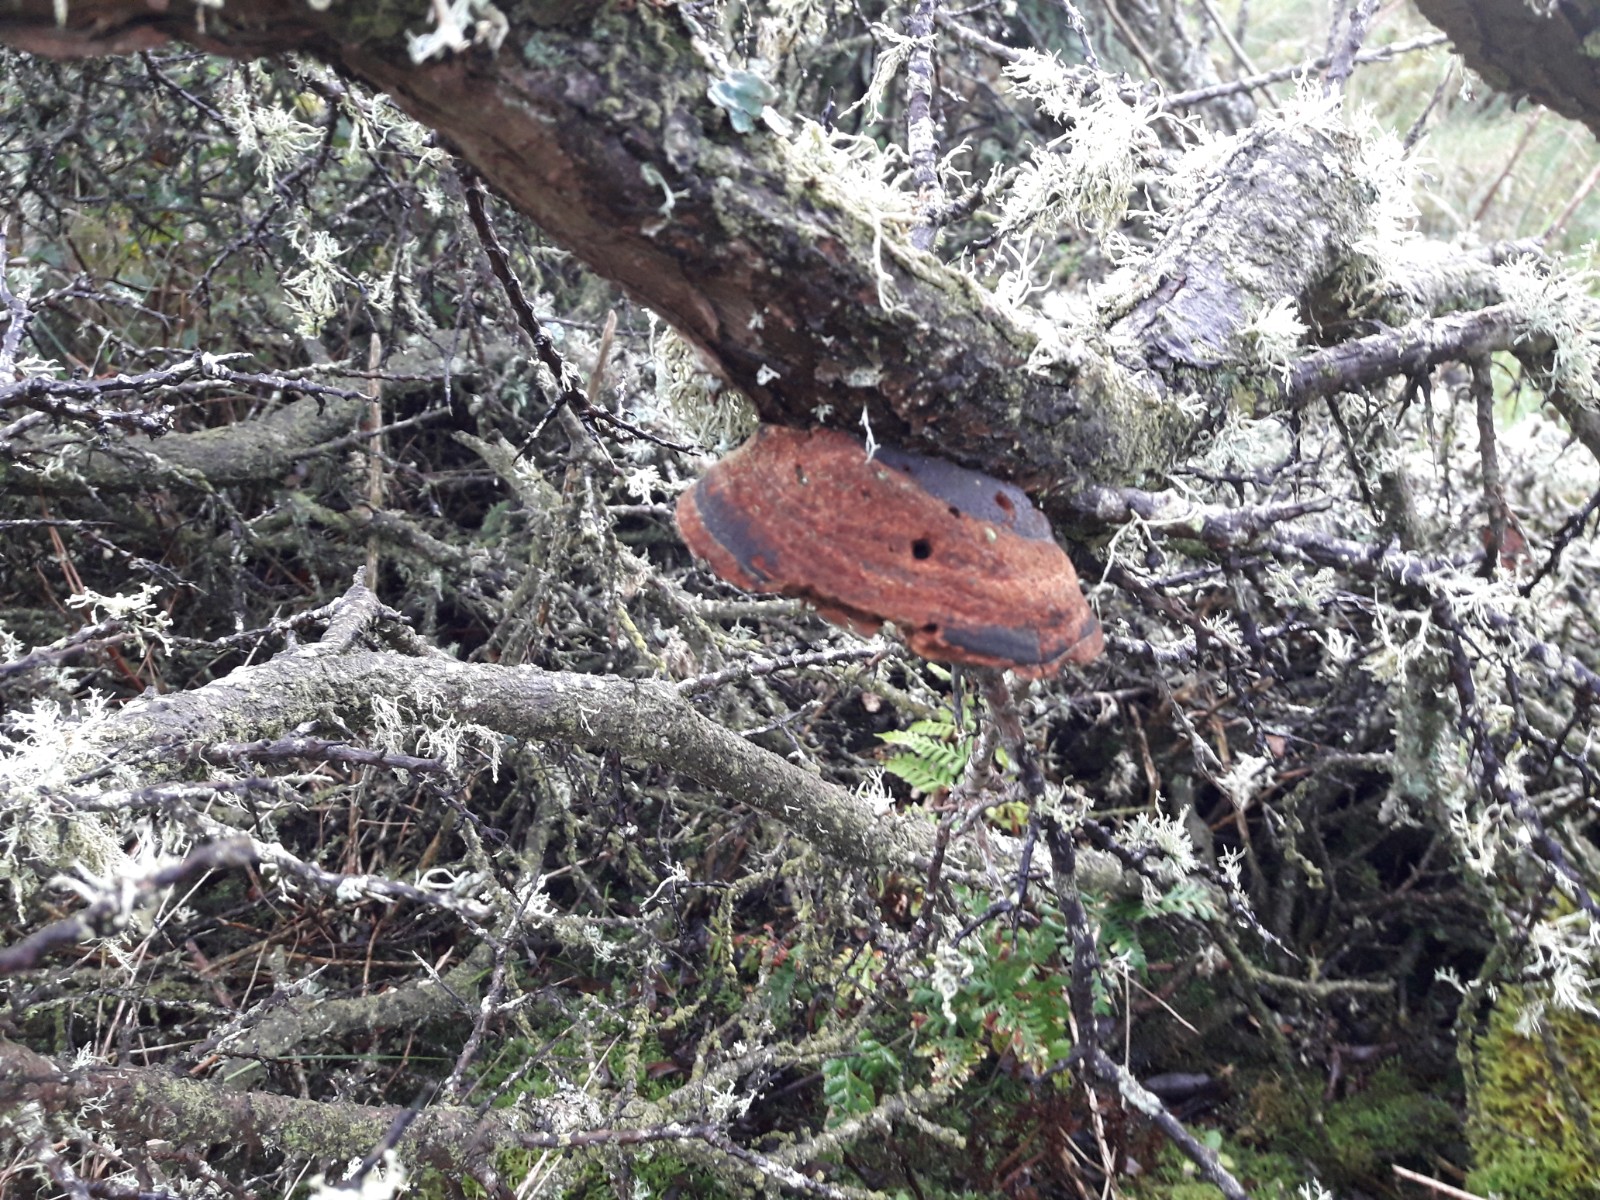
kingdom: Fungi
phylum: Basidiomycota
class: Agaricomycetes
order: Hymenochaetales
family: Hymenochaetaceae
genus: Fomitiporia
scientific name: Fomitiporia hippophaeicola
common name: havtorn-ildporesvamp
